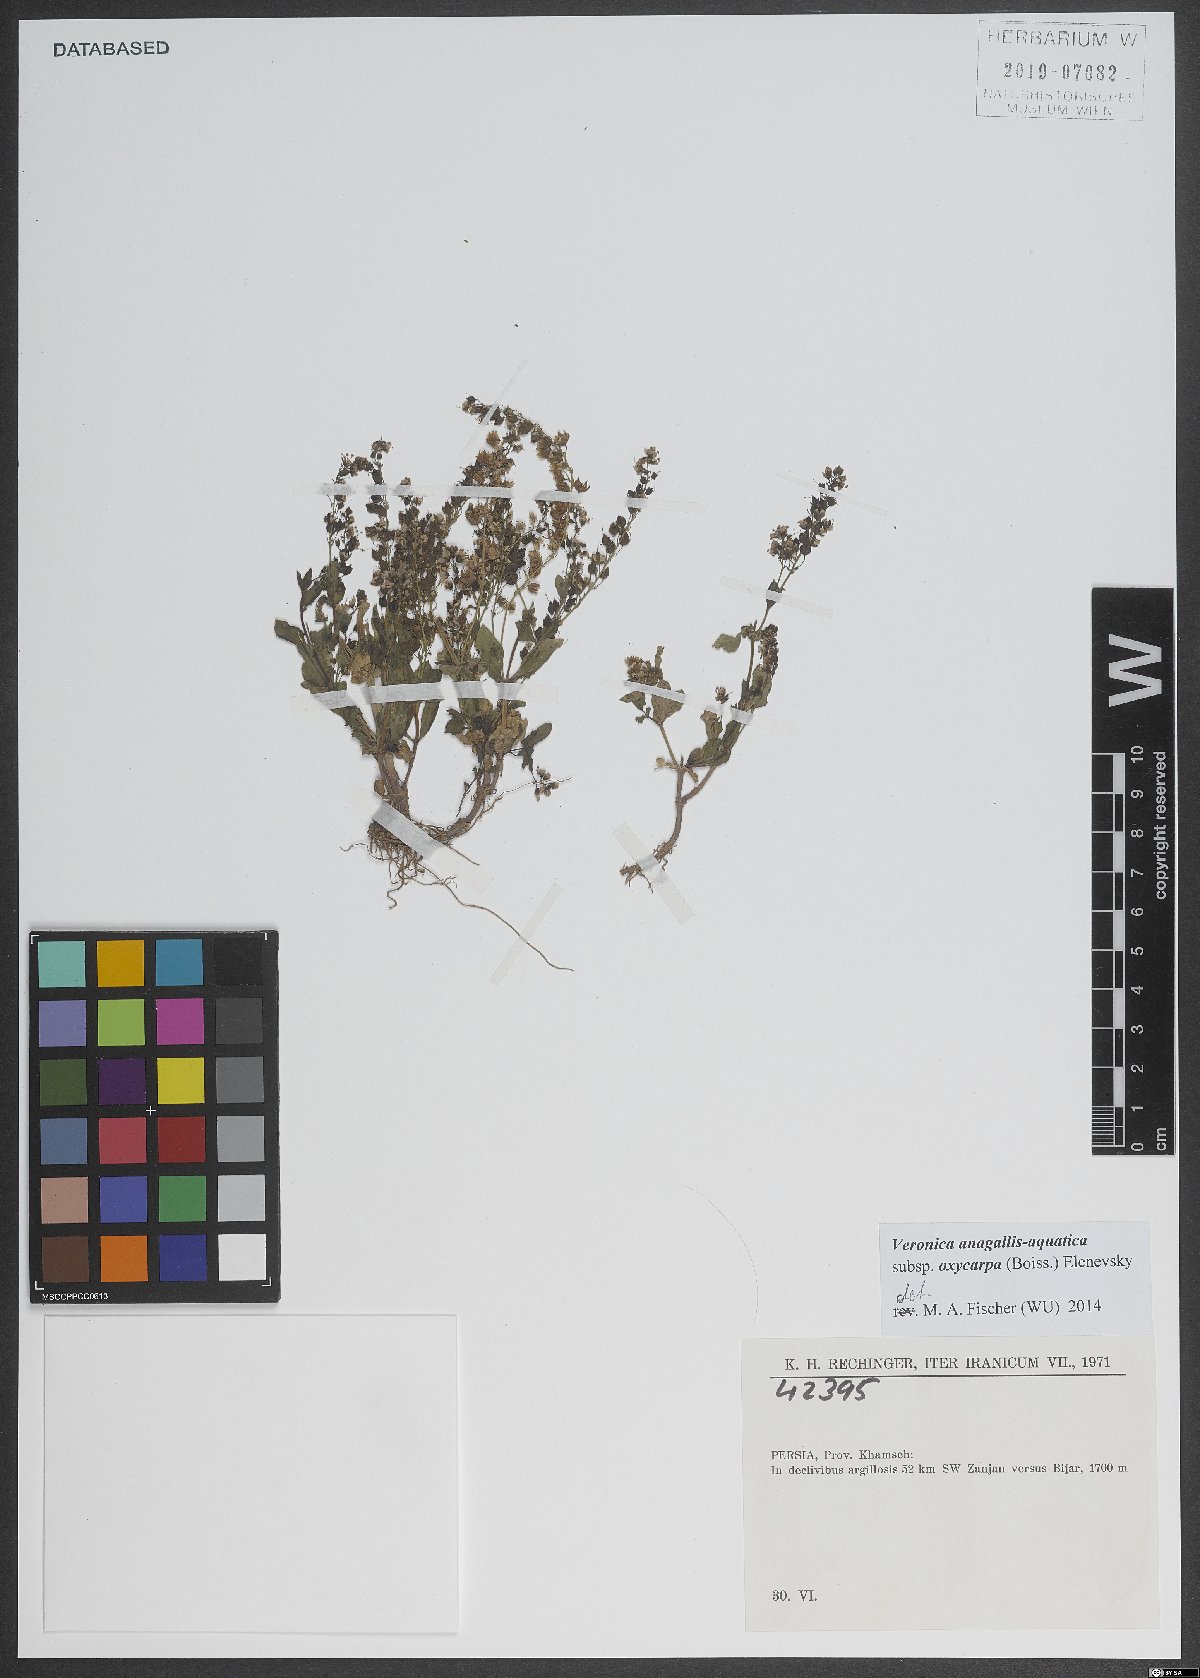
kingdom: Plantae
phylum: Tracheophyta
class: Magnoliopsida
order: Lamiales
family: Plantaginaceae
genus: Veronica
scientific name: Veronica oxycarpa
